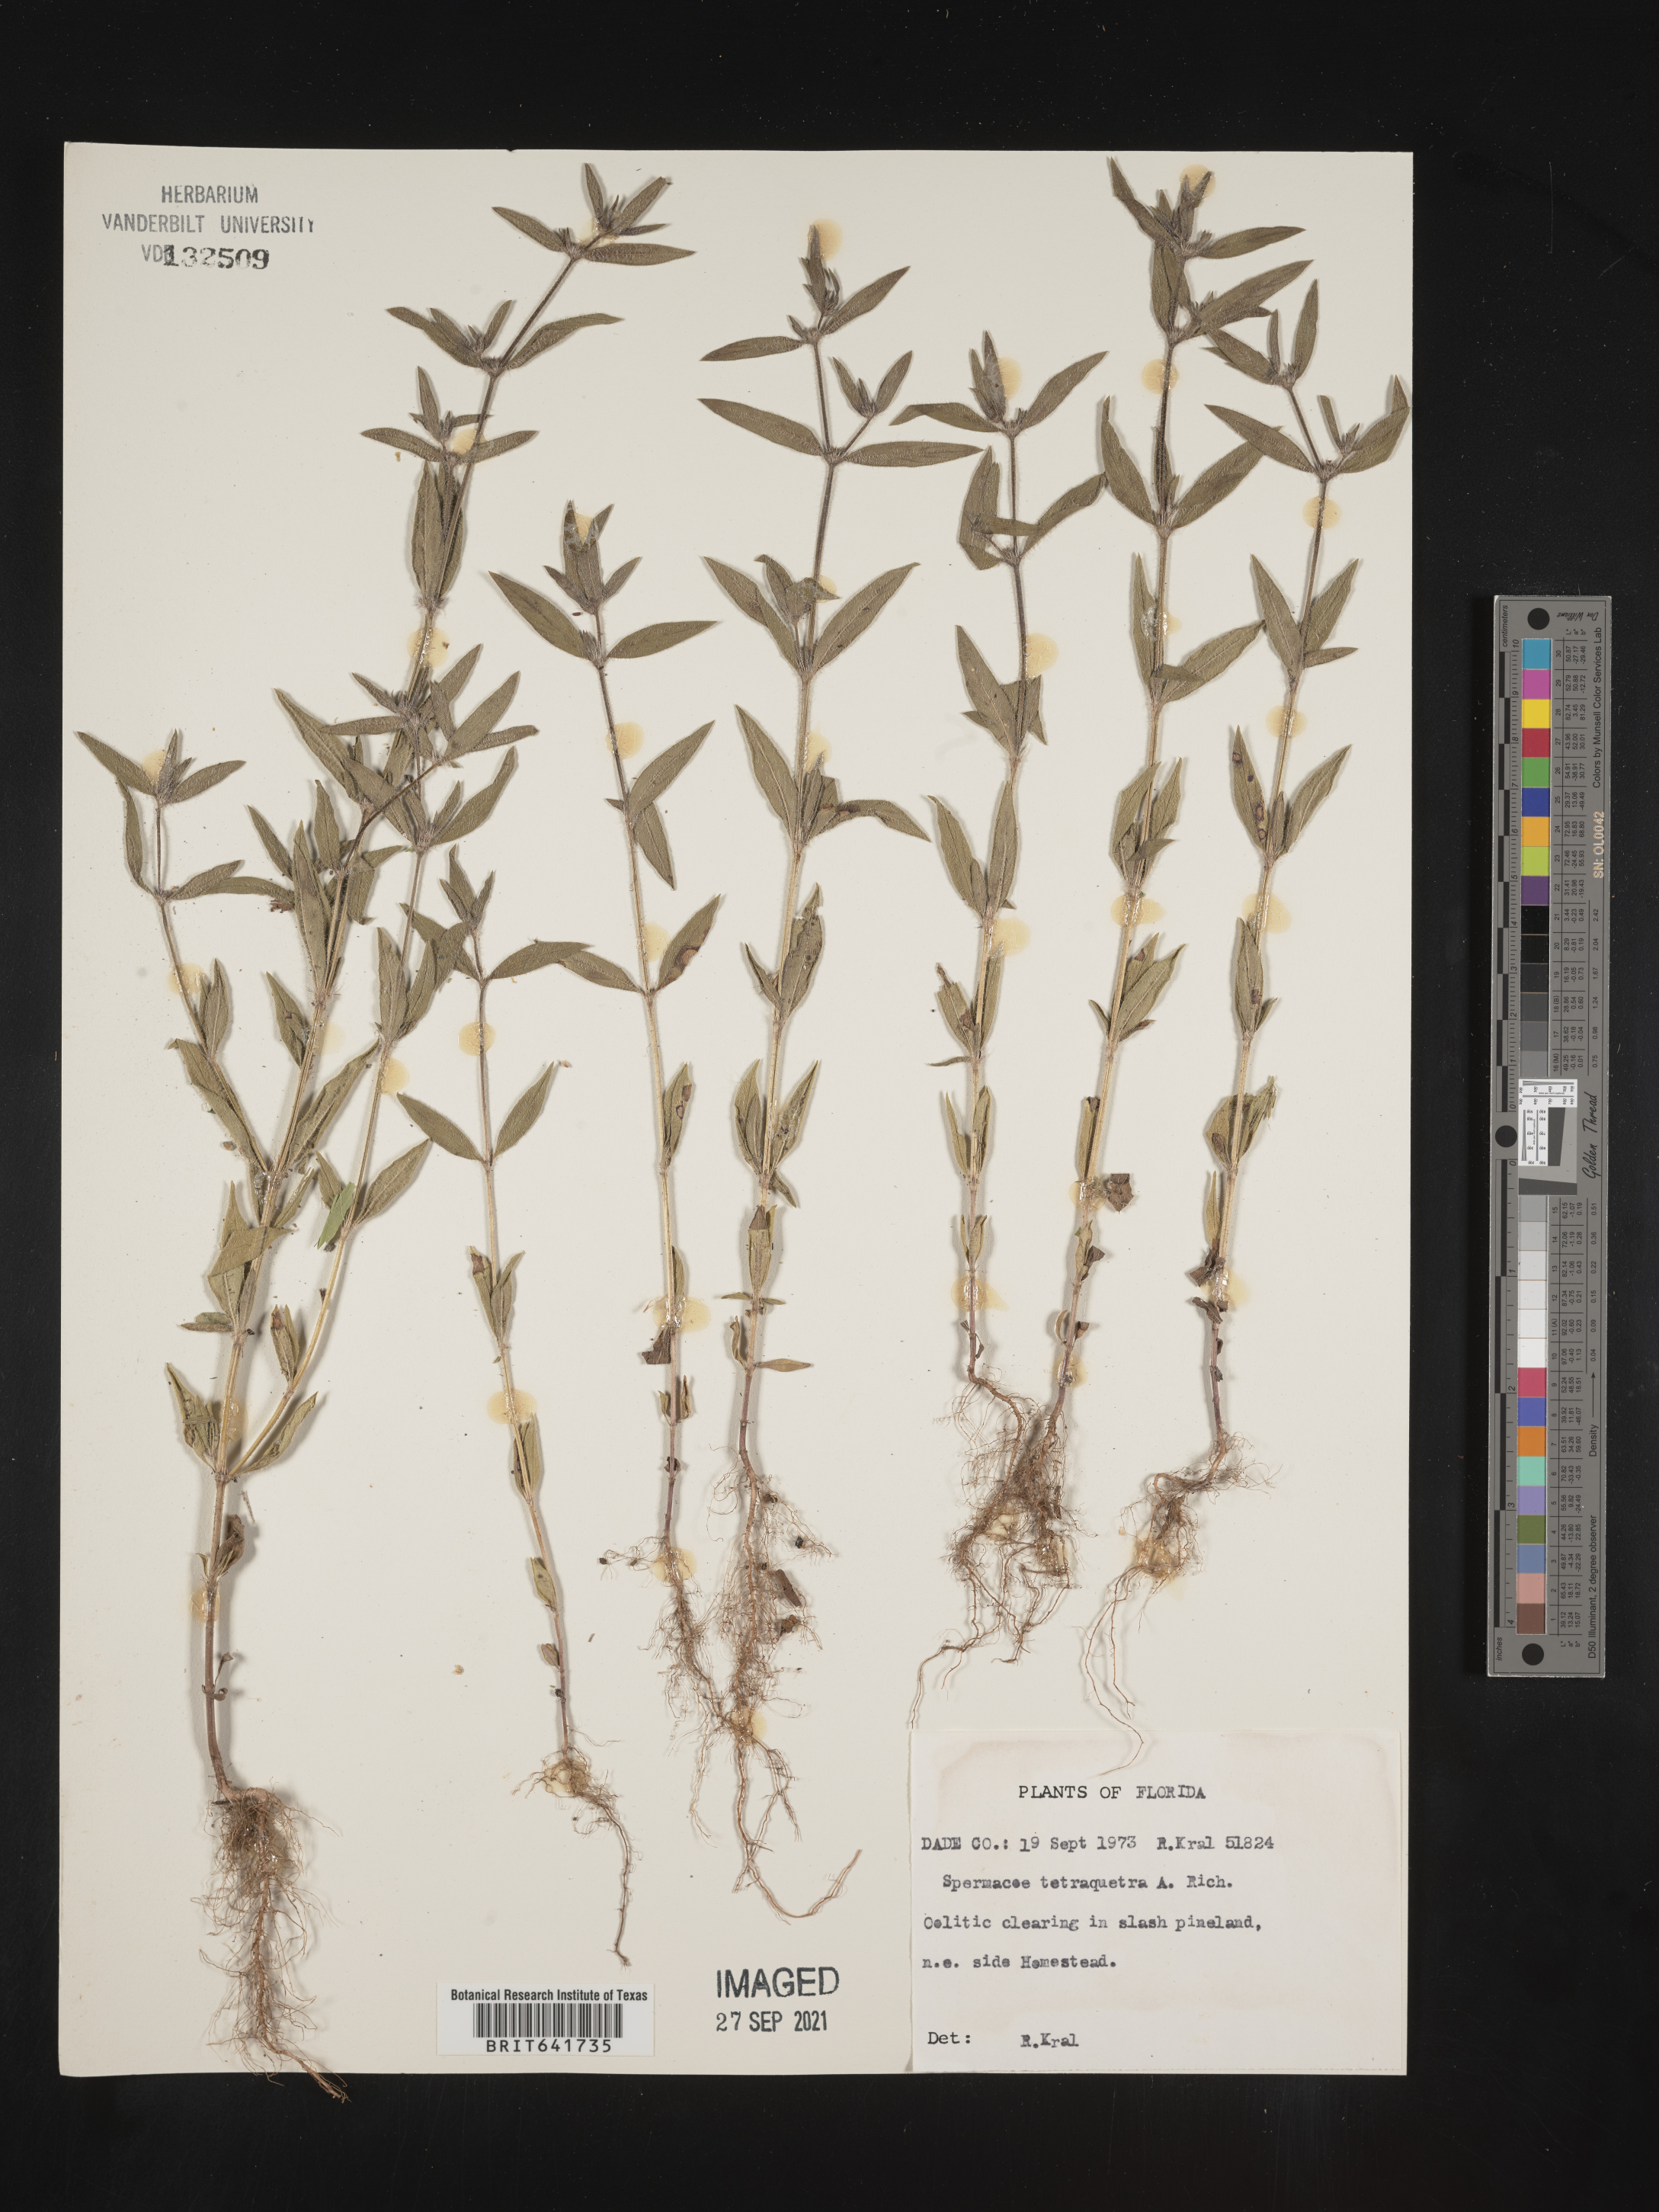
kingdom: Plantae
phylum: Tracheophyta
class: Magnoliopsida
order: Gentianales
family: Rubiaceae
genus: Spermacoce
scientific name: Spermacoce tetraquetra
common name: Pineland false buttonweed
